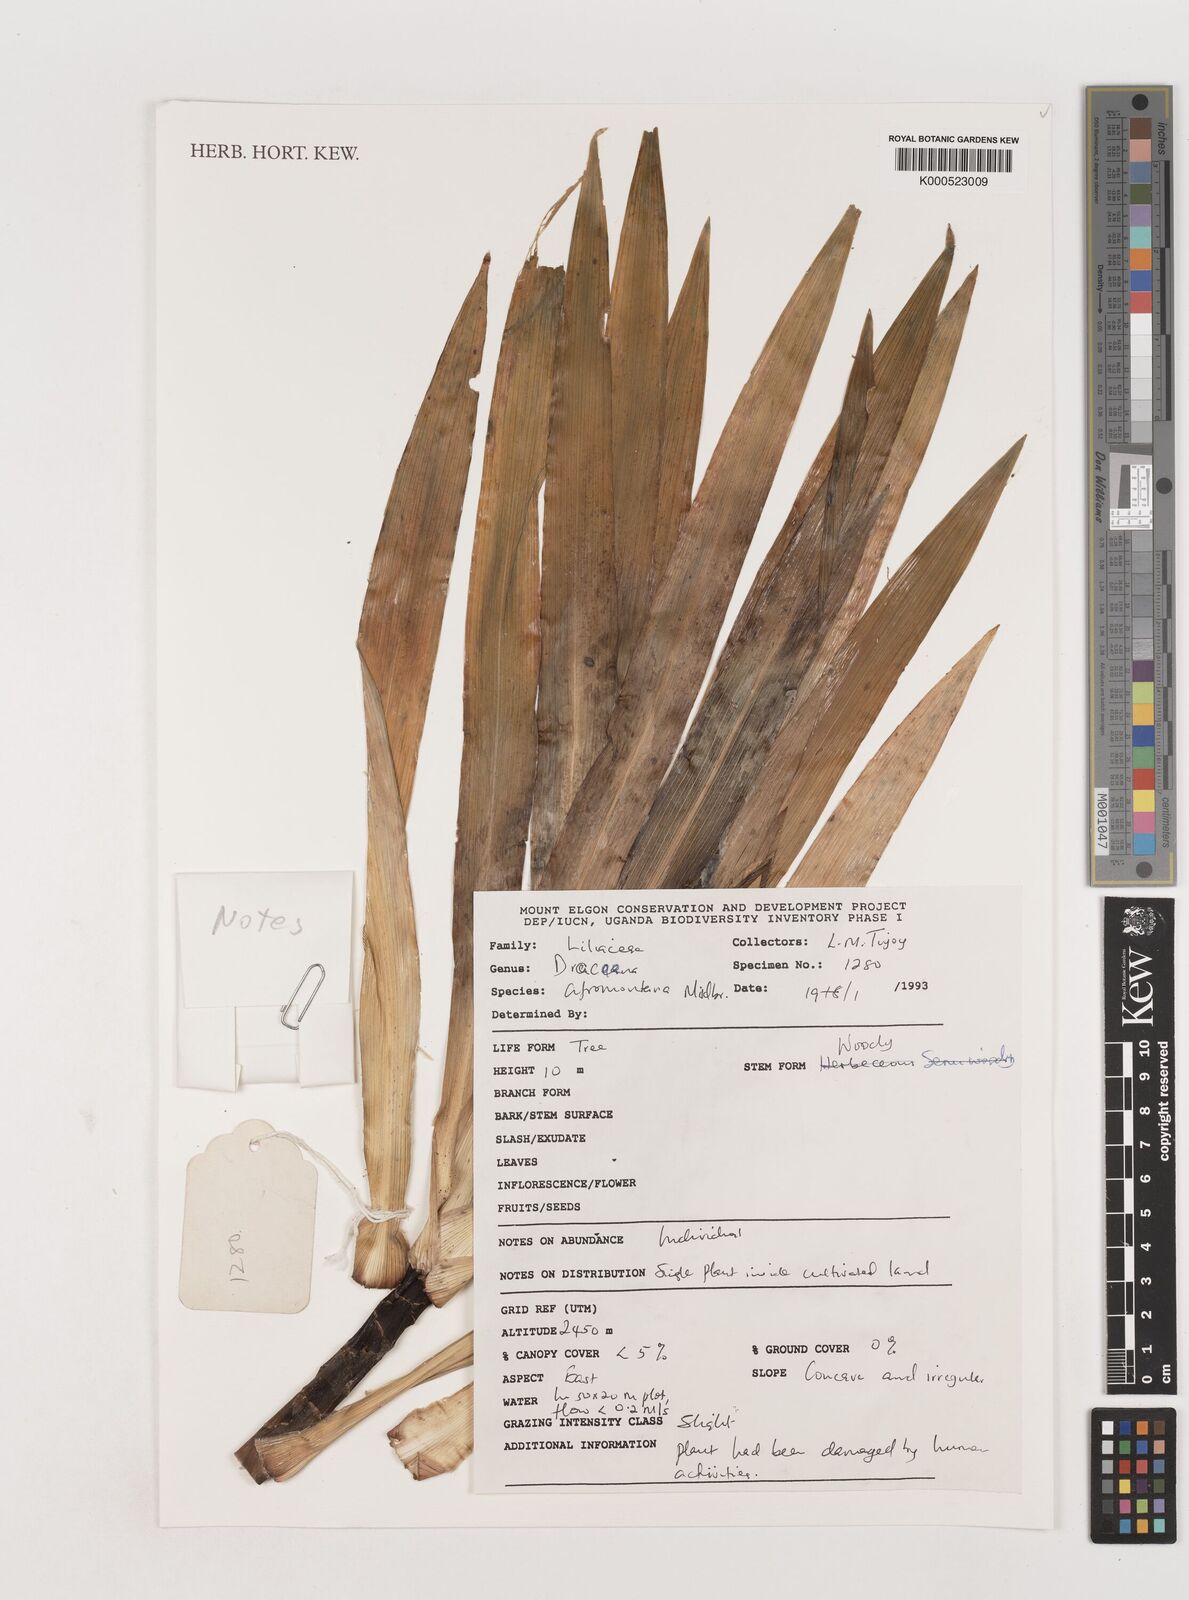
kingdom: Plantae
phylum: Tracheophyta
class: Liliopsida
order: Asparagales
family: Asparagaceae
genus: Dracaena
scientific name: Dracaena afromontana
